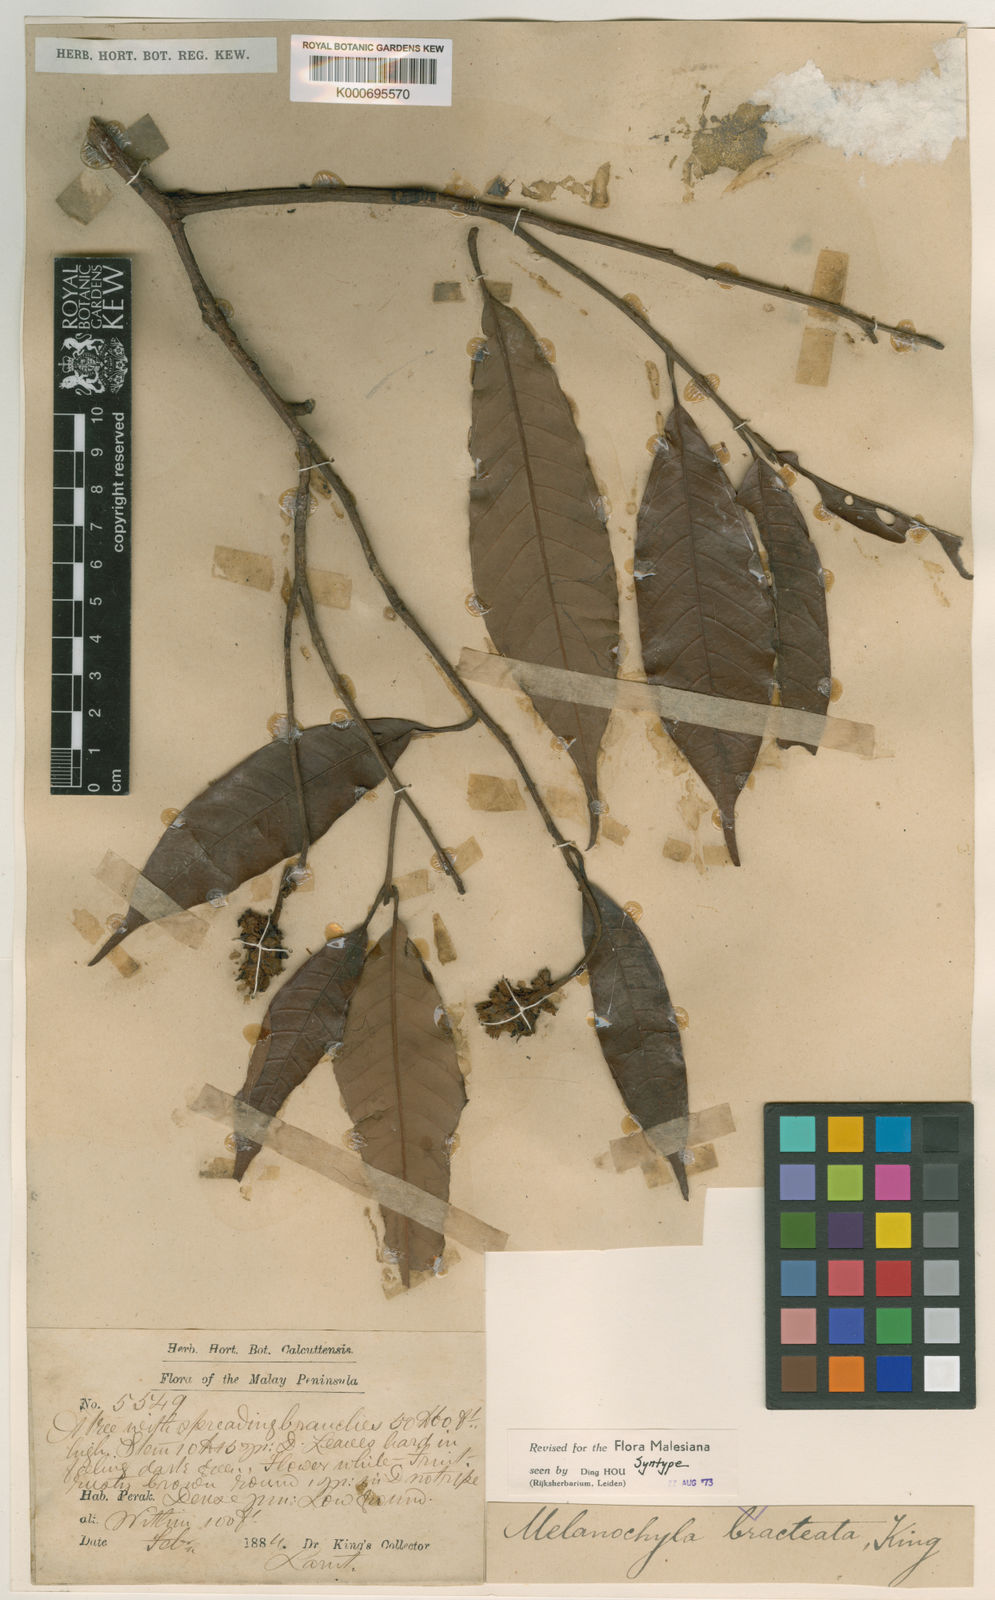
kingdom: Plantae
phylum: Tracheophyta
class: Magnoliopsida
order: Sapindales
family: Anacardiaceae
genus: Melanochyla
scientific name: Melanochyla bracteata
